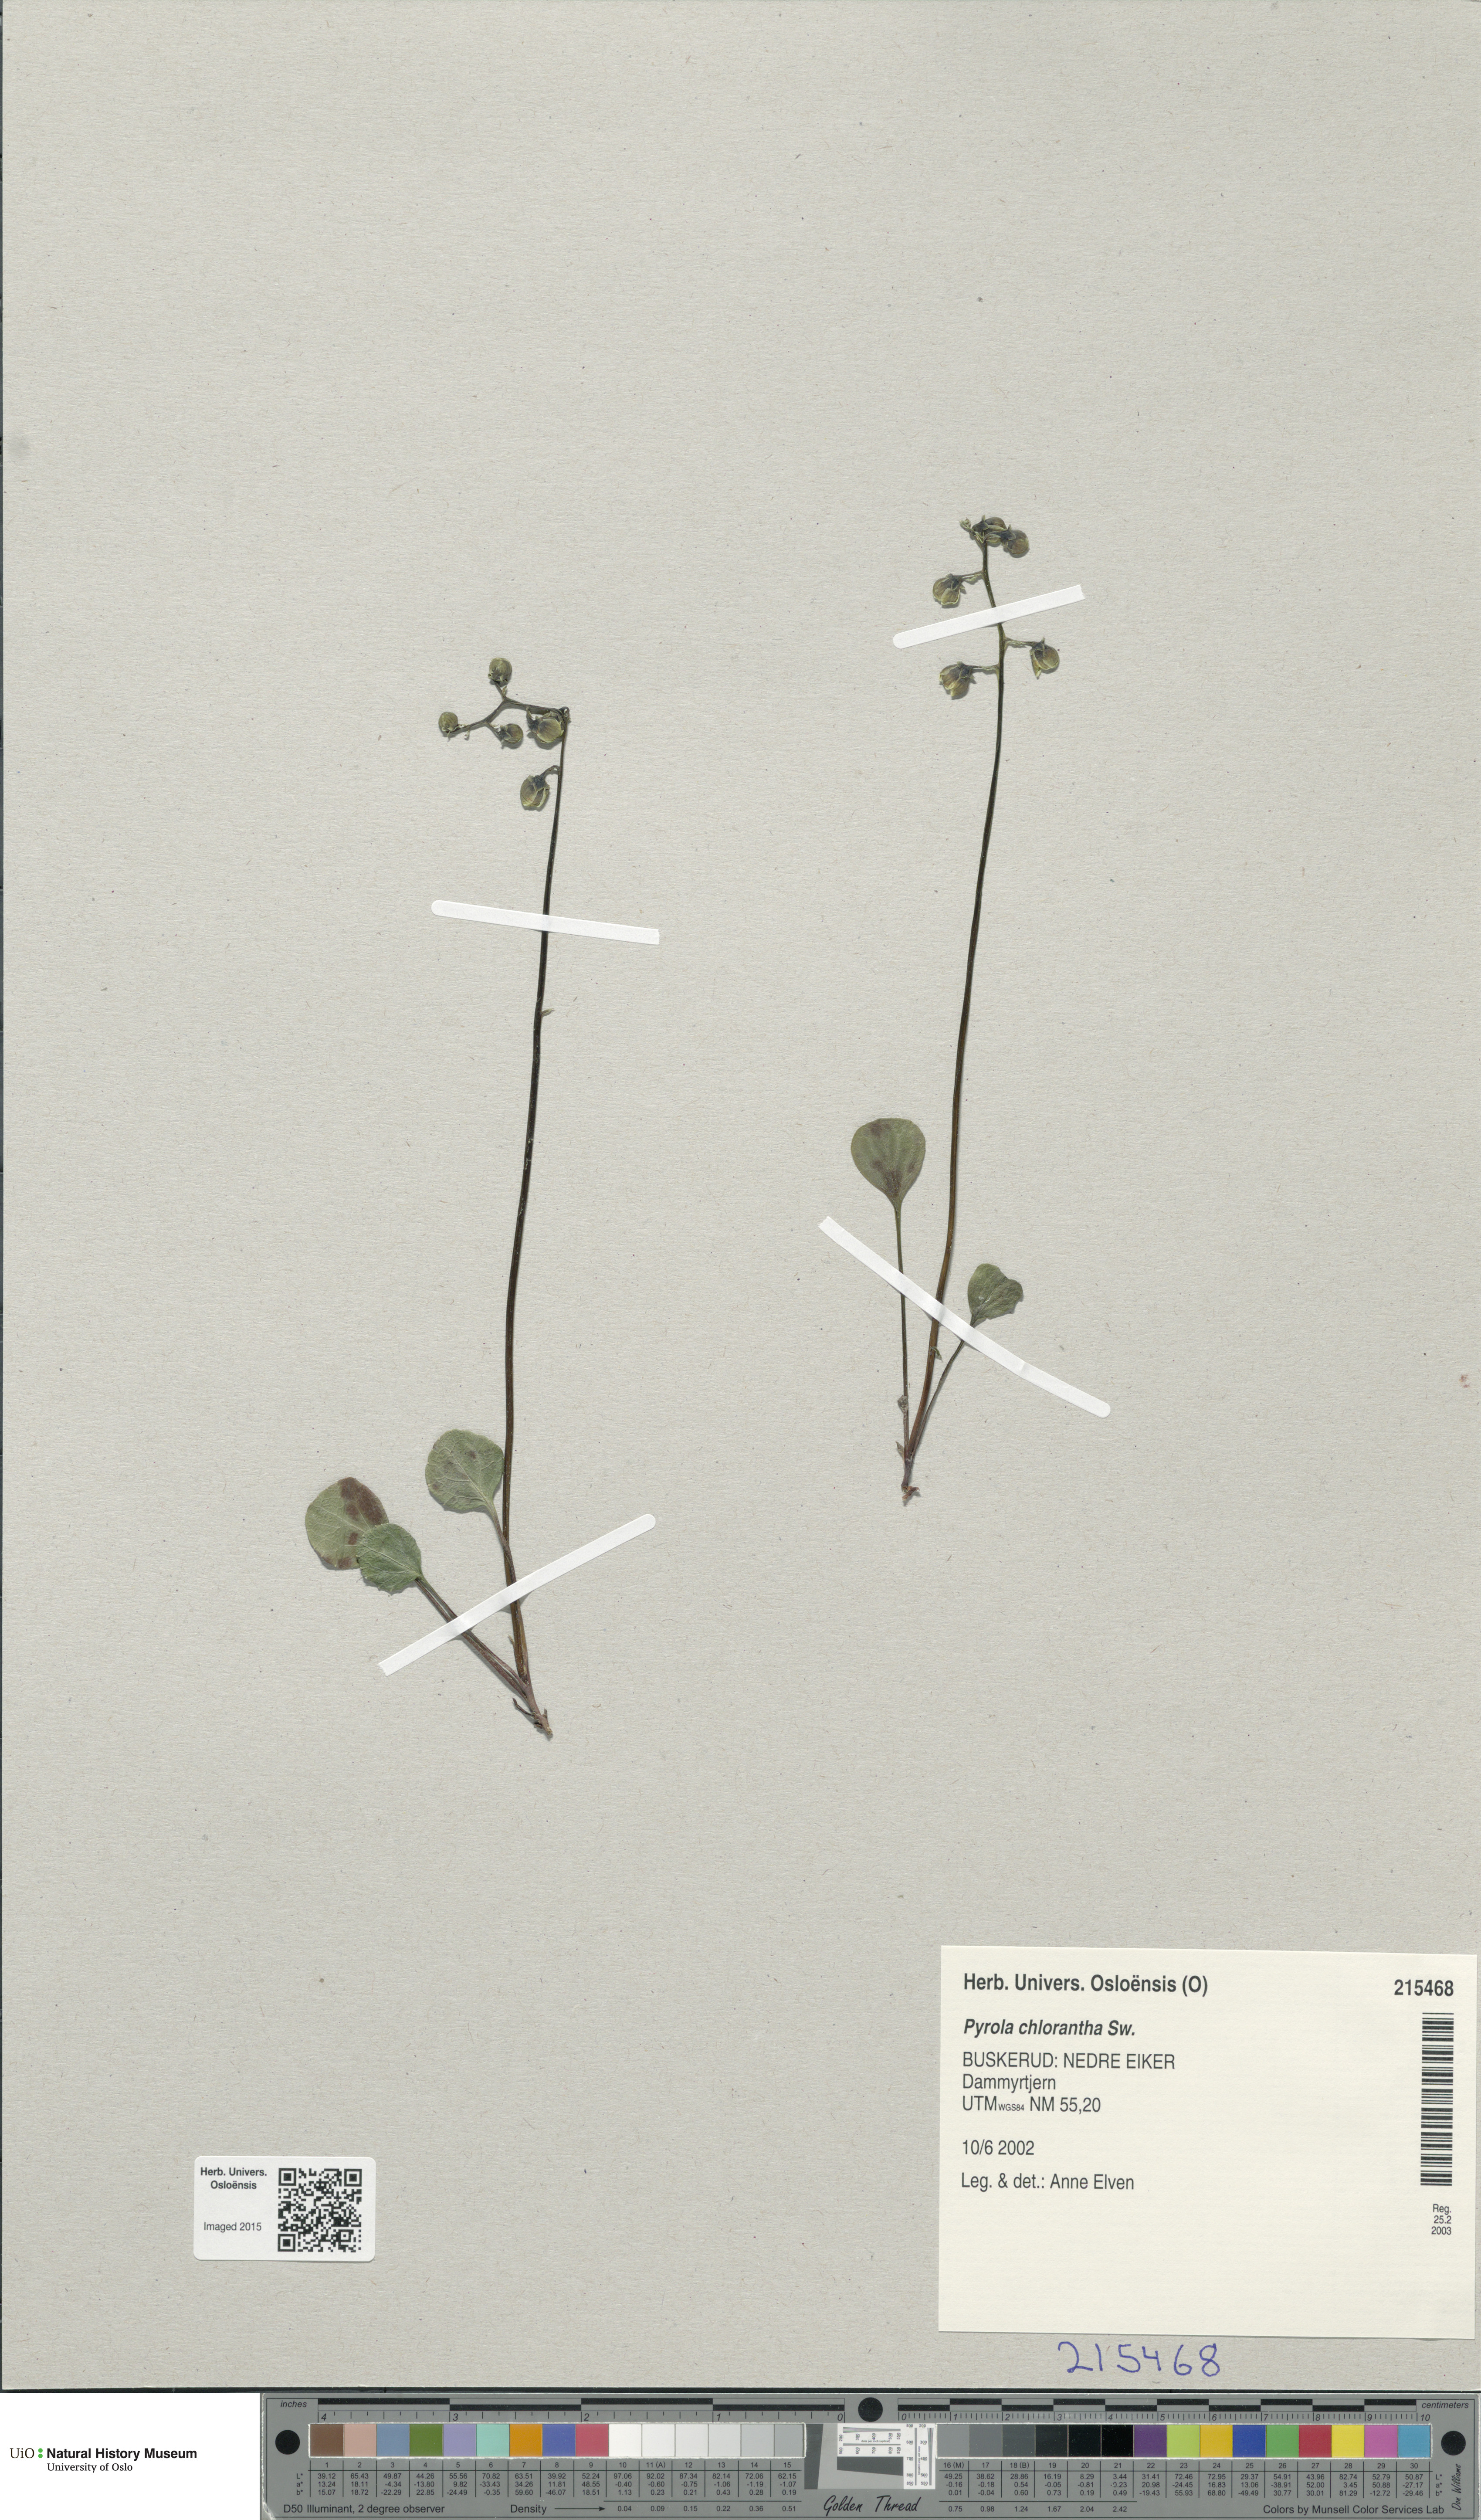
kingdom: Plantae
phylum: Tracheophyta
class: Magnoliopsida
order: Ericales
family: Ericaceae
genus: Pyrola
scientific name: Pyrola chlorantha
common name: Green wintergreen
